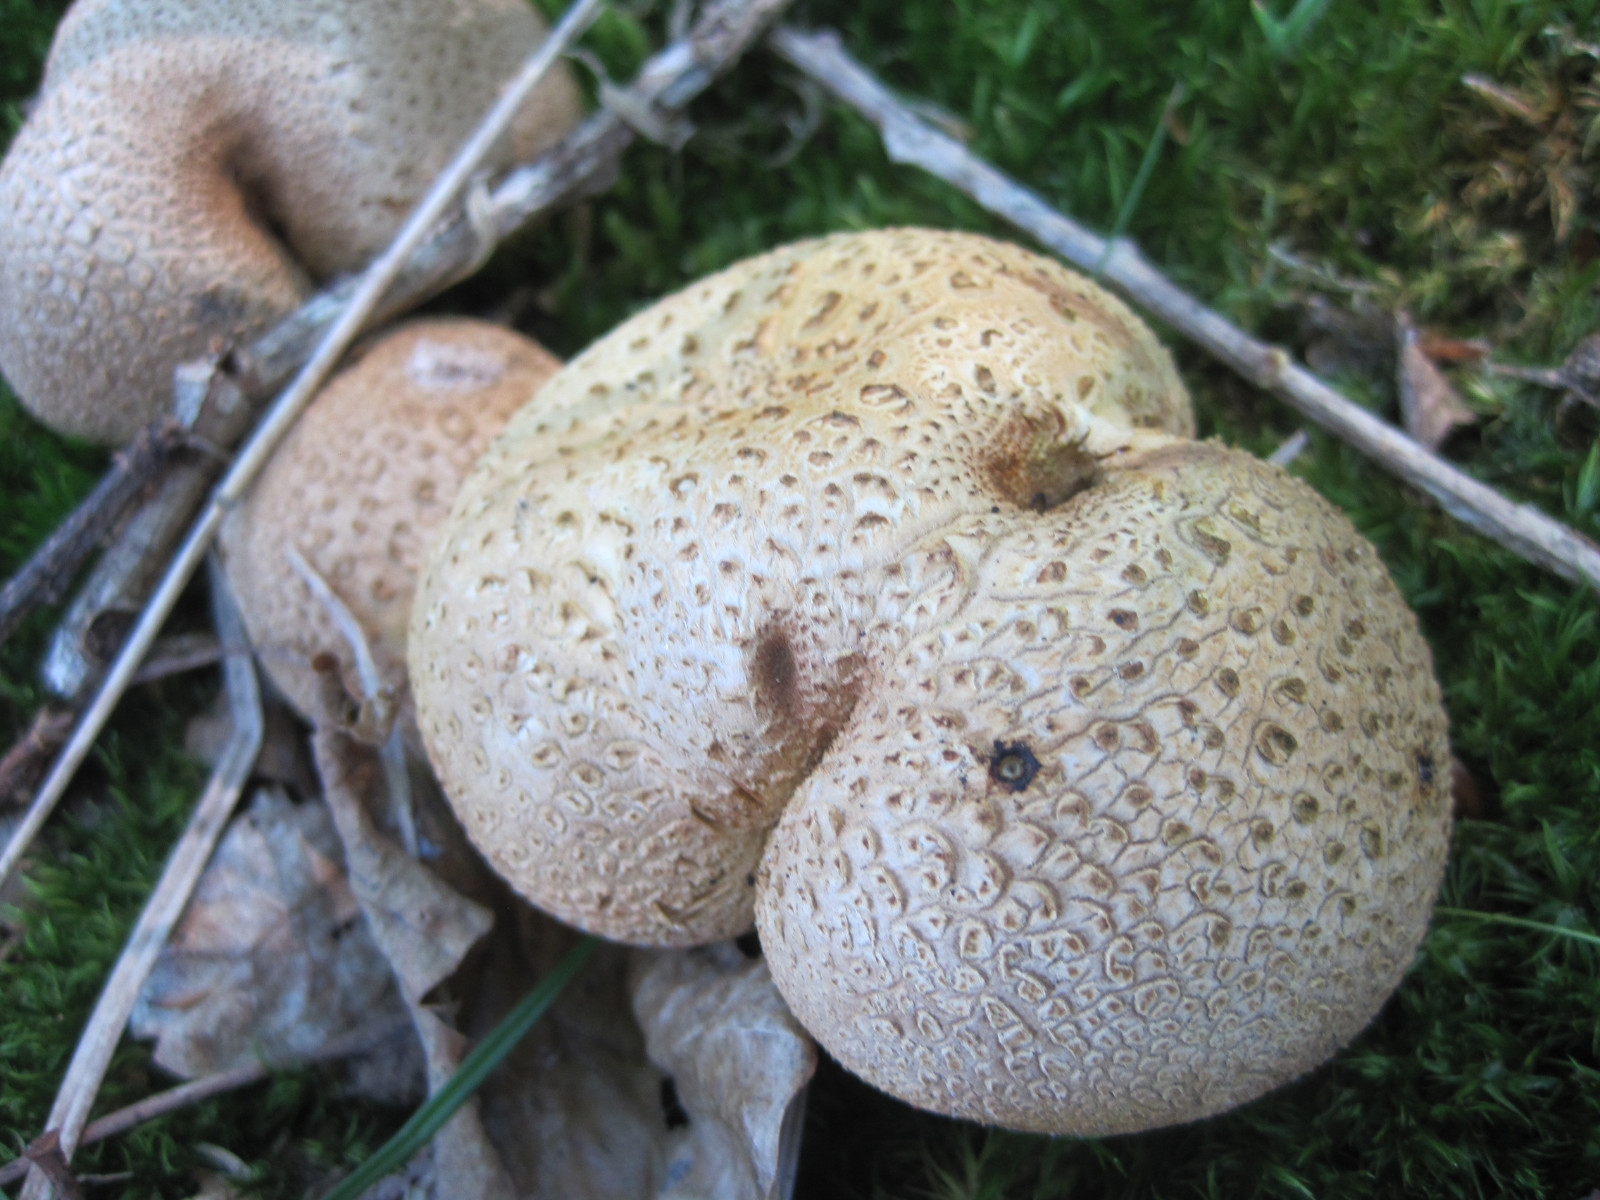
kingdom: Fungi
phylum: Basidiomycota
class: Agaricomycetes
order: Boletales
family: Sclerodermataceae
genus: Scleroderma
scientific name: Scleroderma citrinum
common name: almindelig bruskbold
